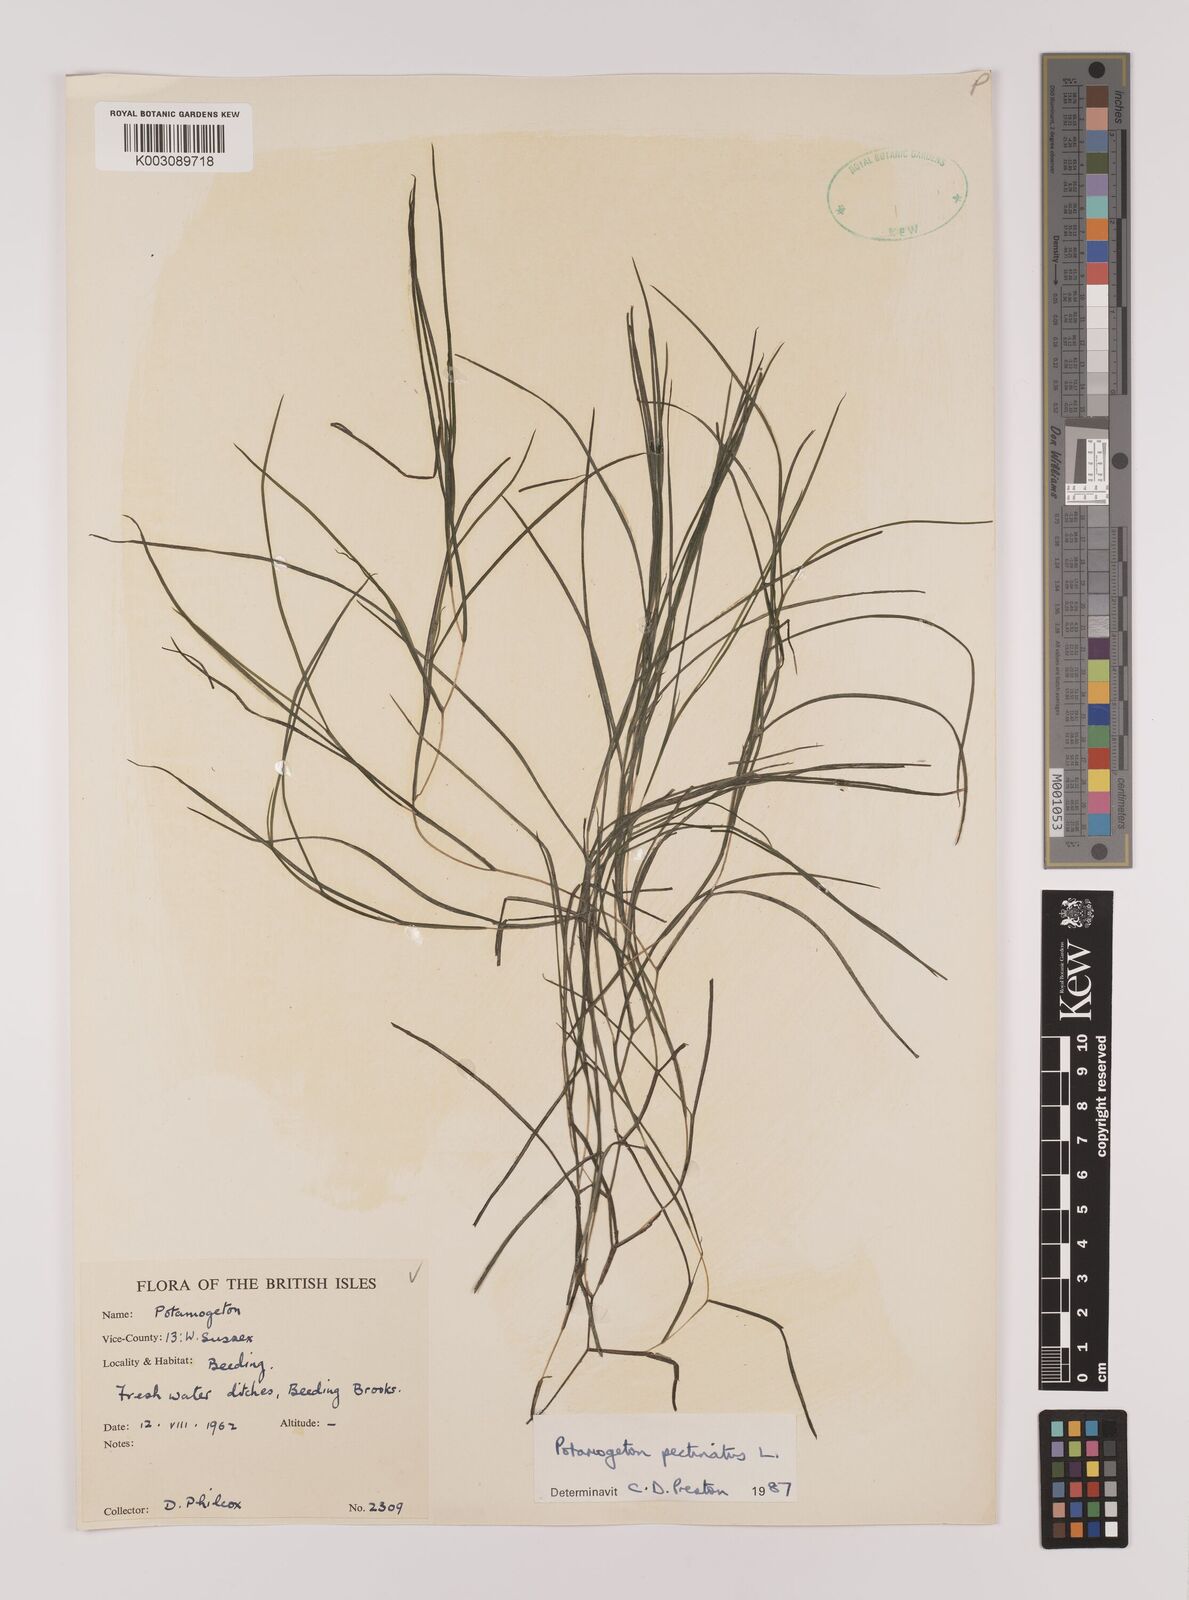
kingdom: Plantae
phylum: Tracheophyta
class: Liliopsida
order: Alismatales
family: Potamogetonaceae
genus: Stuckenia
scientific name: Stuckenia pectinata
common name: Sago pondweed
